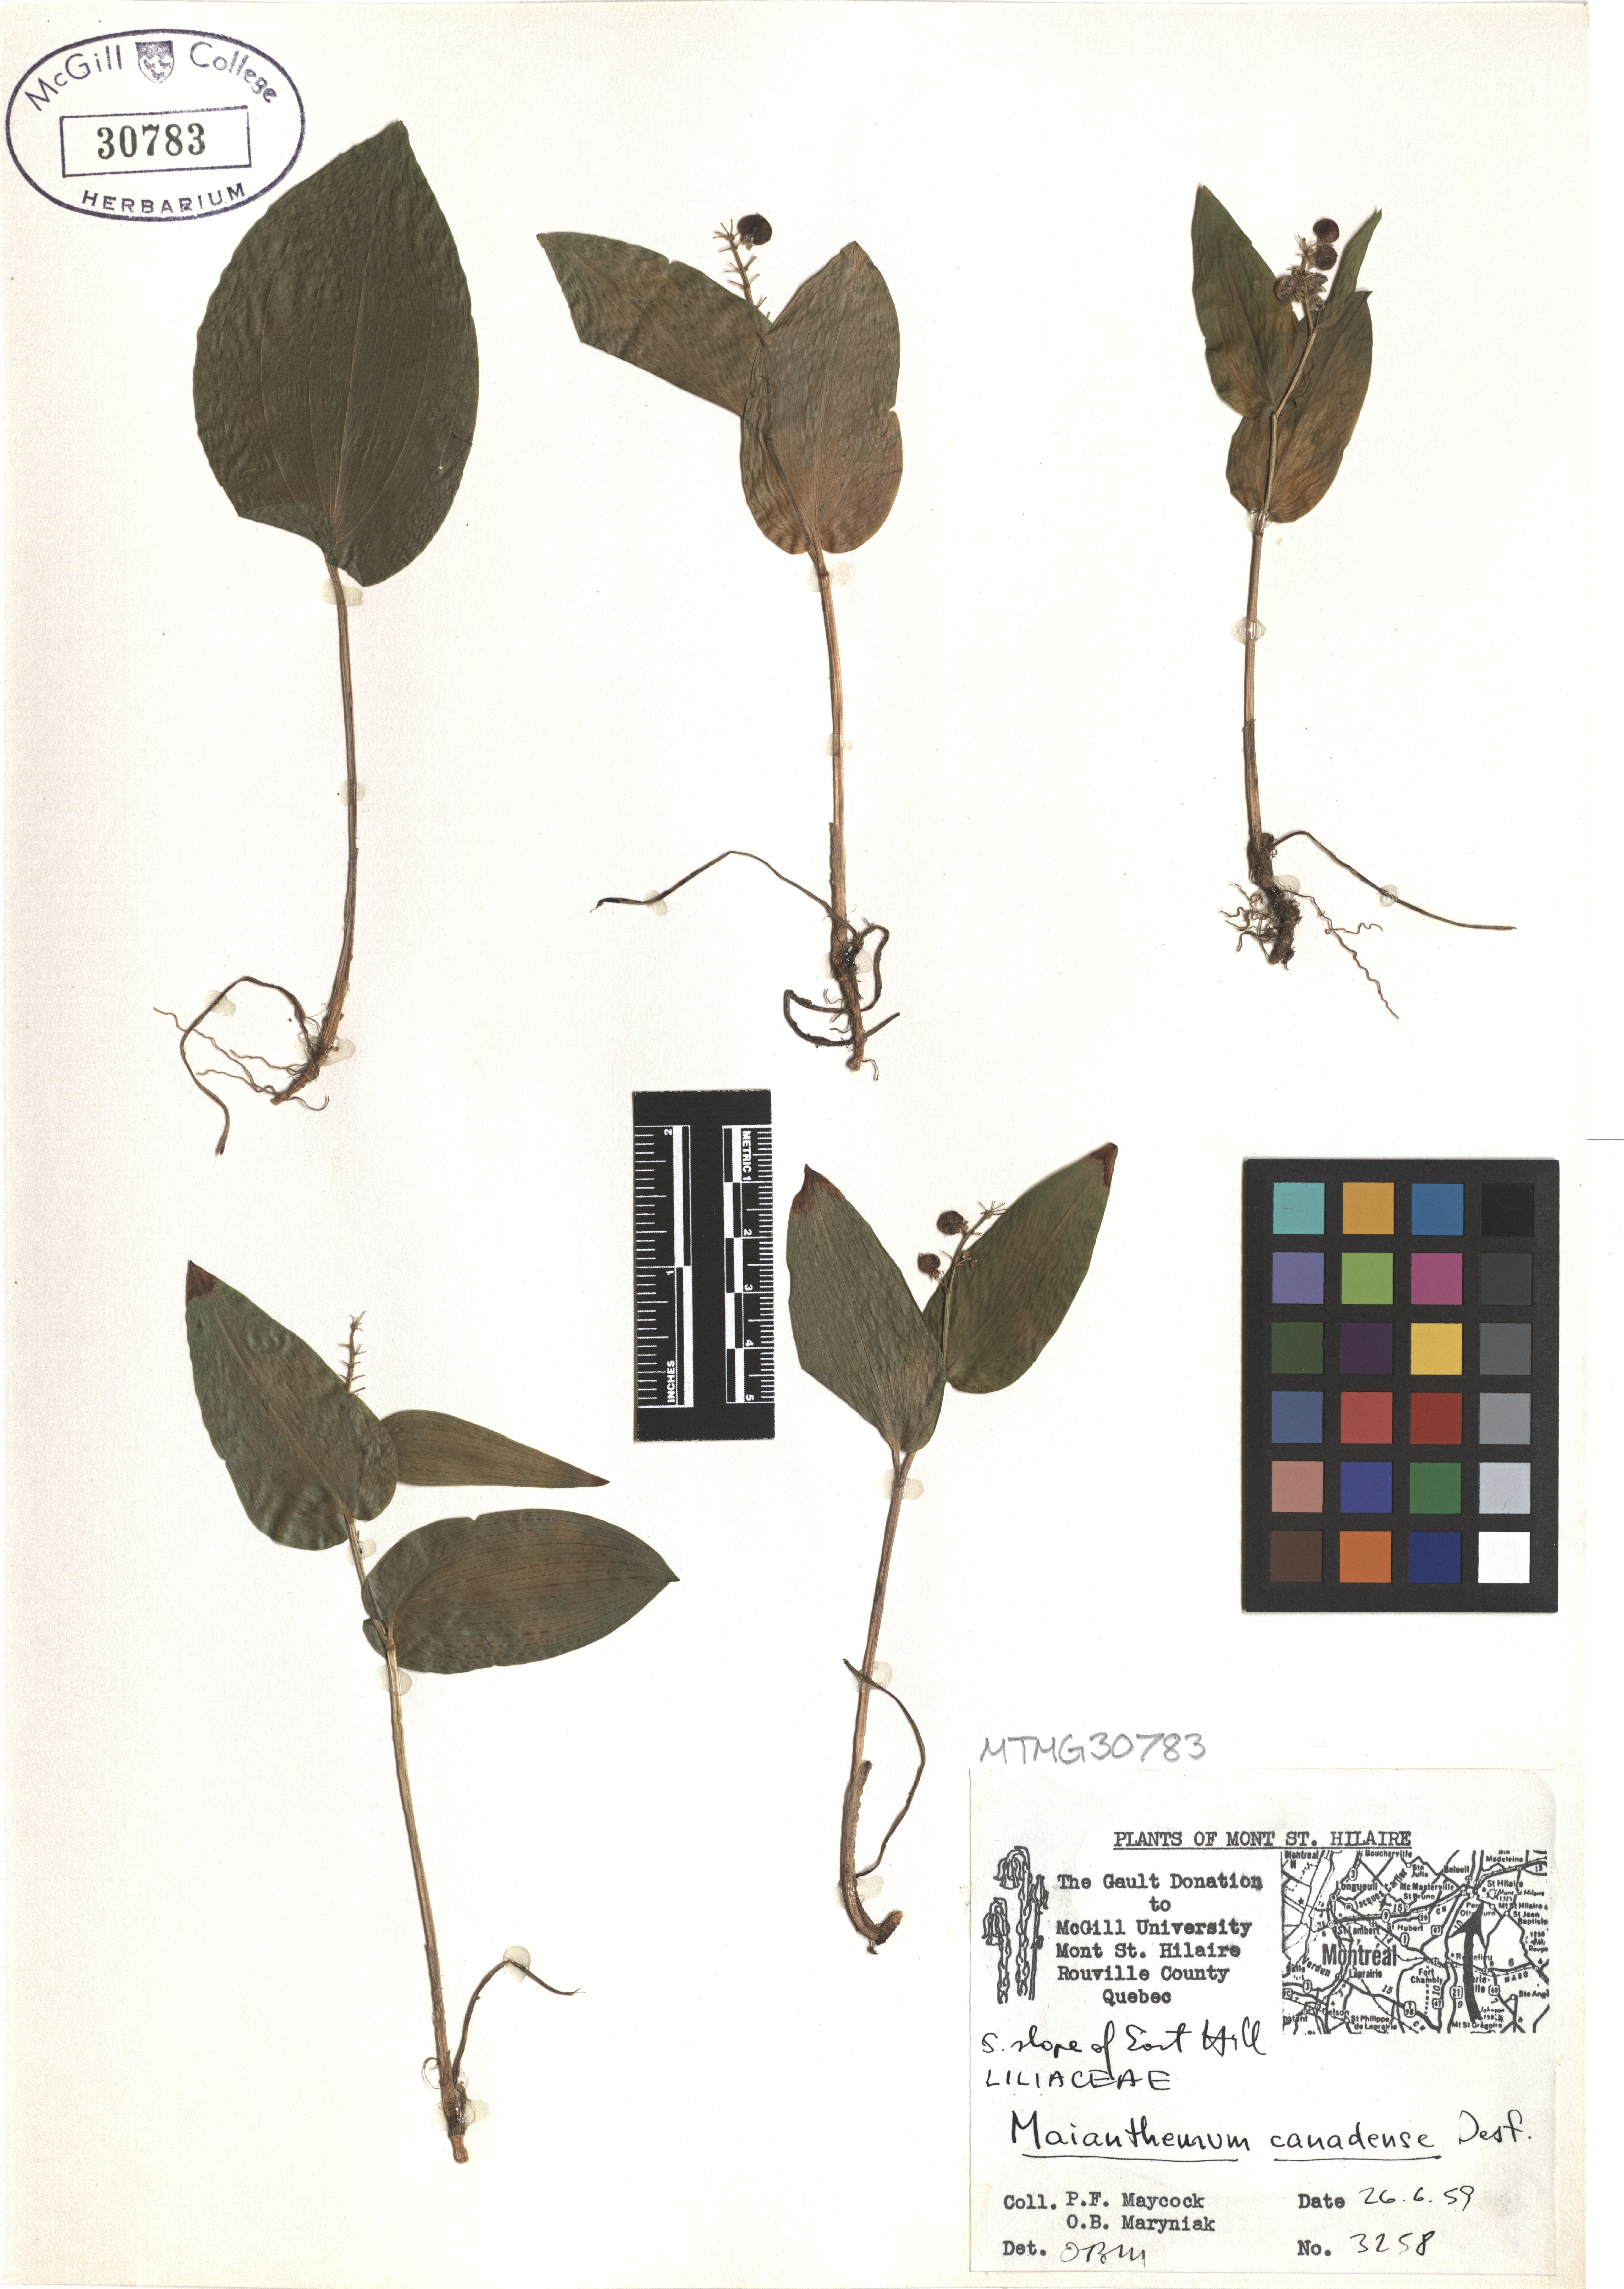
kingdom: Plantae
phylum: Tracheophyta
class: Liliopsida
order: Asparagales
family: Asparagaceae
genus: Maianthemum
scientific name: Maianthemum canadense
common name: False lily-of-the-valley
